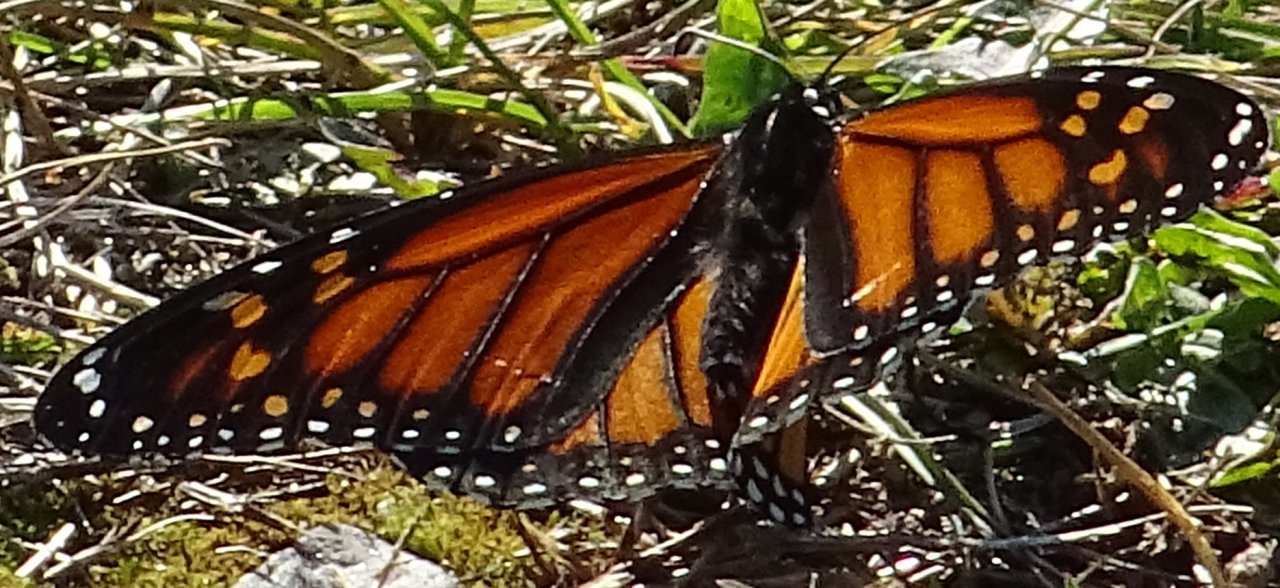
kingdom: Animalia
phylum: Arthropoda
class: Insecta
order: Lepidoptera
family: Nymphalidae
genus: Danaus
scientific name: Danaus plexippus
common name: Monarch
